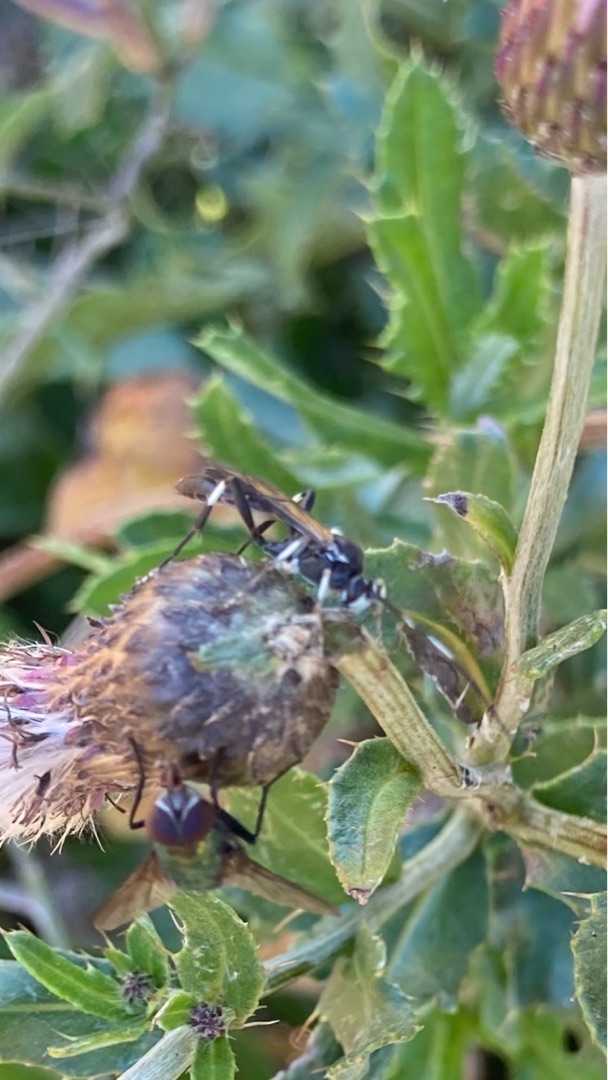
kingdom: Plantae
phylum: Tracheophyta
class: Magnoliopsida
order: Asterales
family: Asteraceae
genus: Cirsium
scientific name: Cirsium arvense
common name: Ager-tidsel
